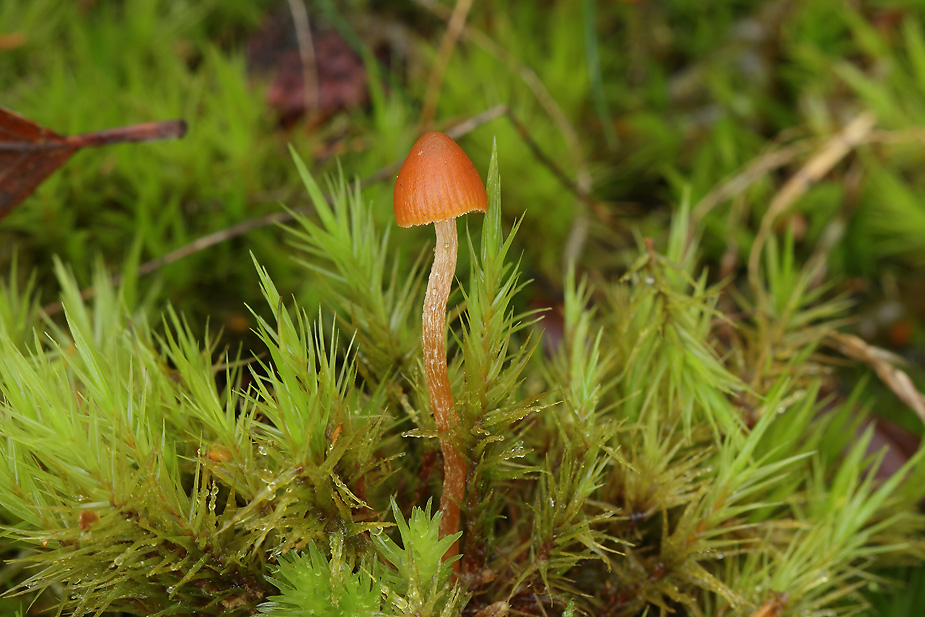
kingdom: Fungi
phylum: Basidiomycota
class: Agaricomycetes
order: Agaricales
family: Hymenogastraceae
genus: Galerina
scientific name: Galerina calyptrata
